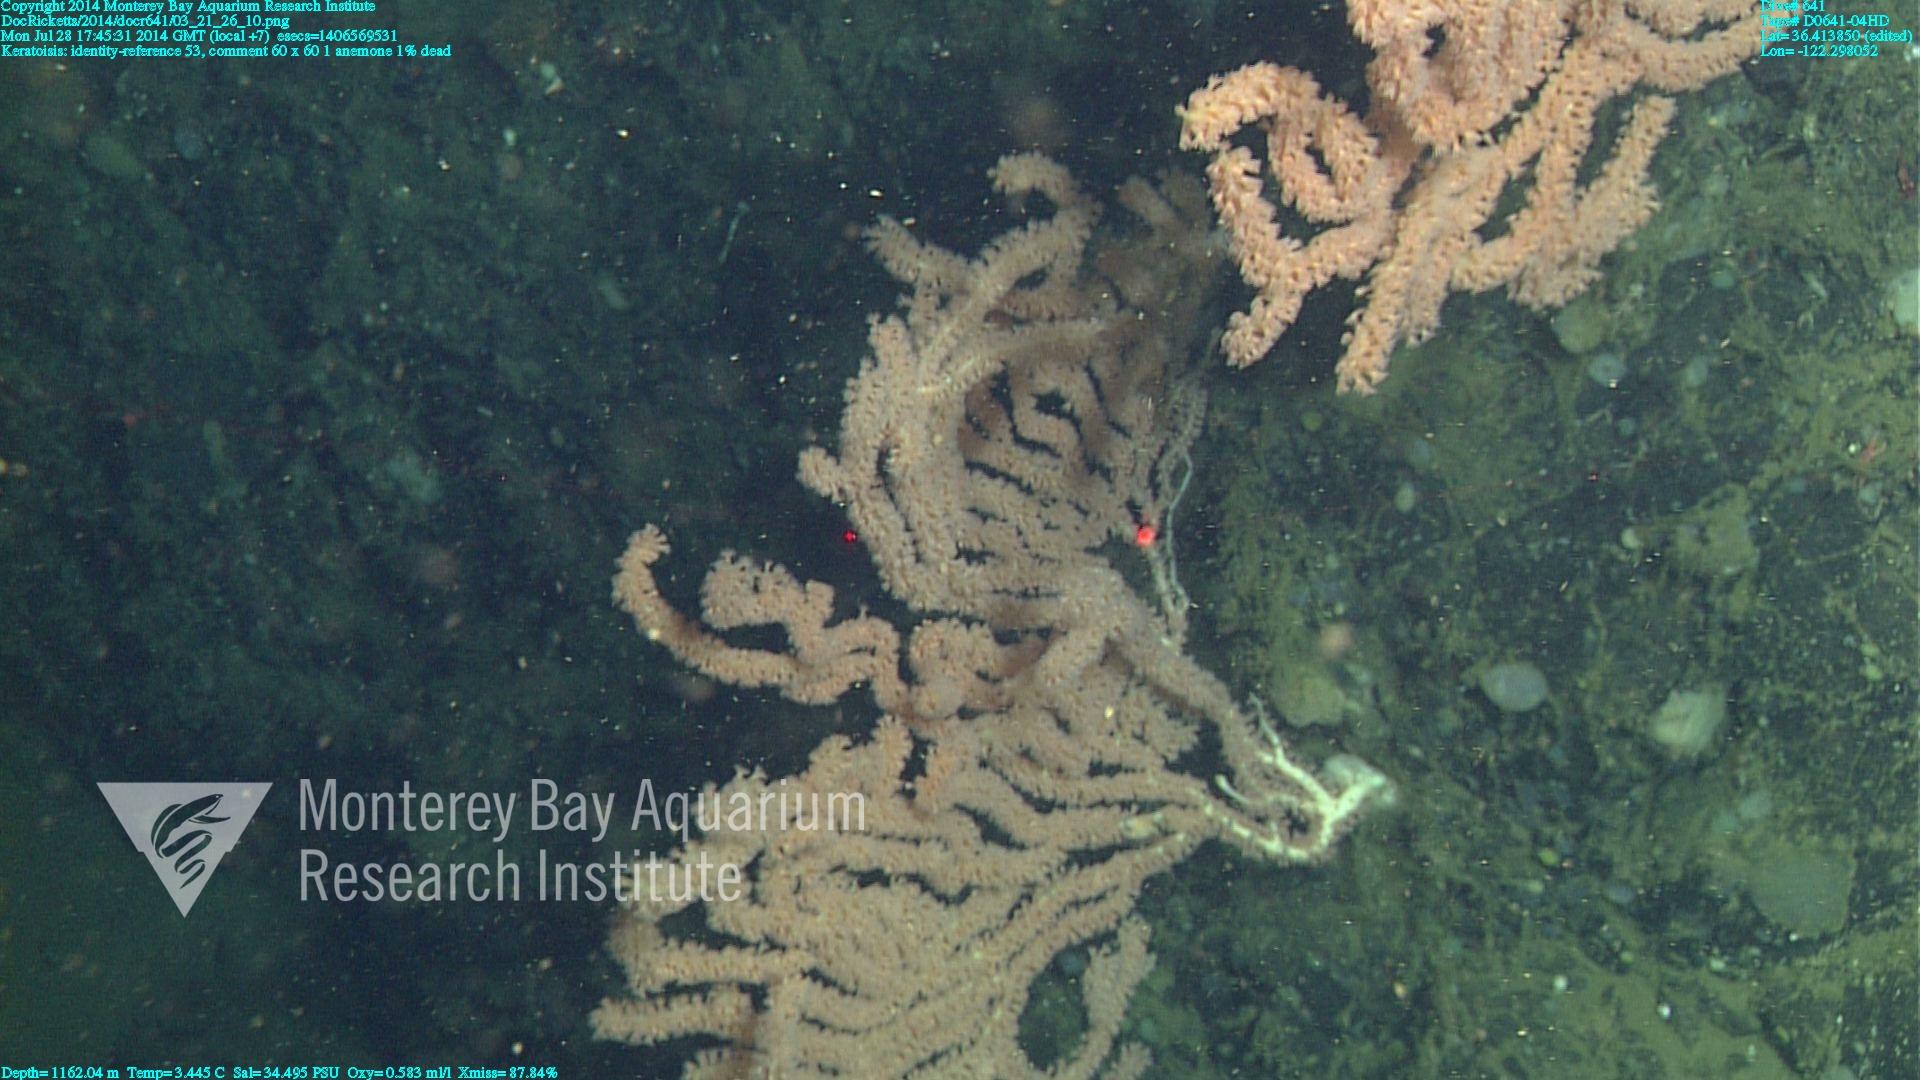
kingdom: Animalia
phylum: Cnidaria
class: Anthozoa
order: Scleralcyonacea
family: Keratoisididae
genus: Keratoisis
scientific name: Keratoisis
